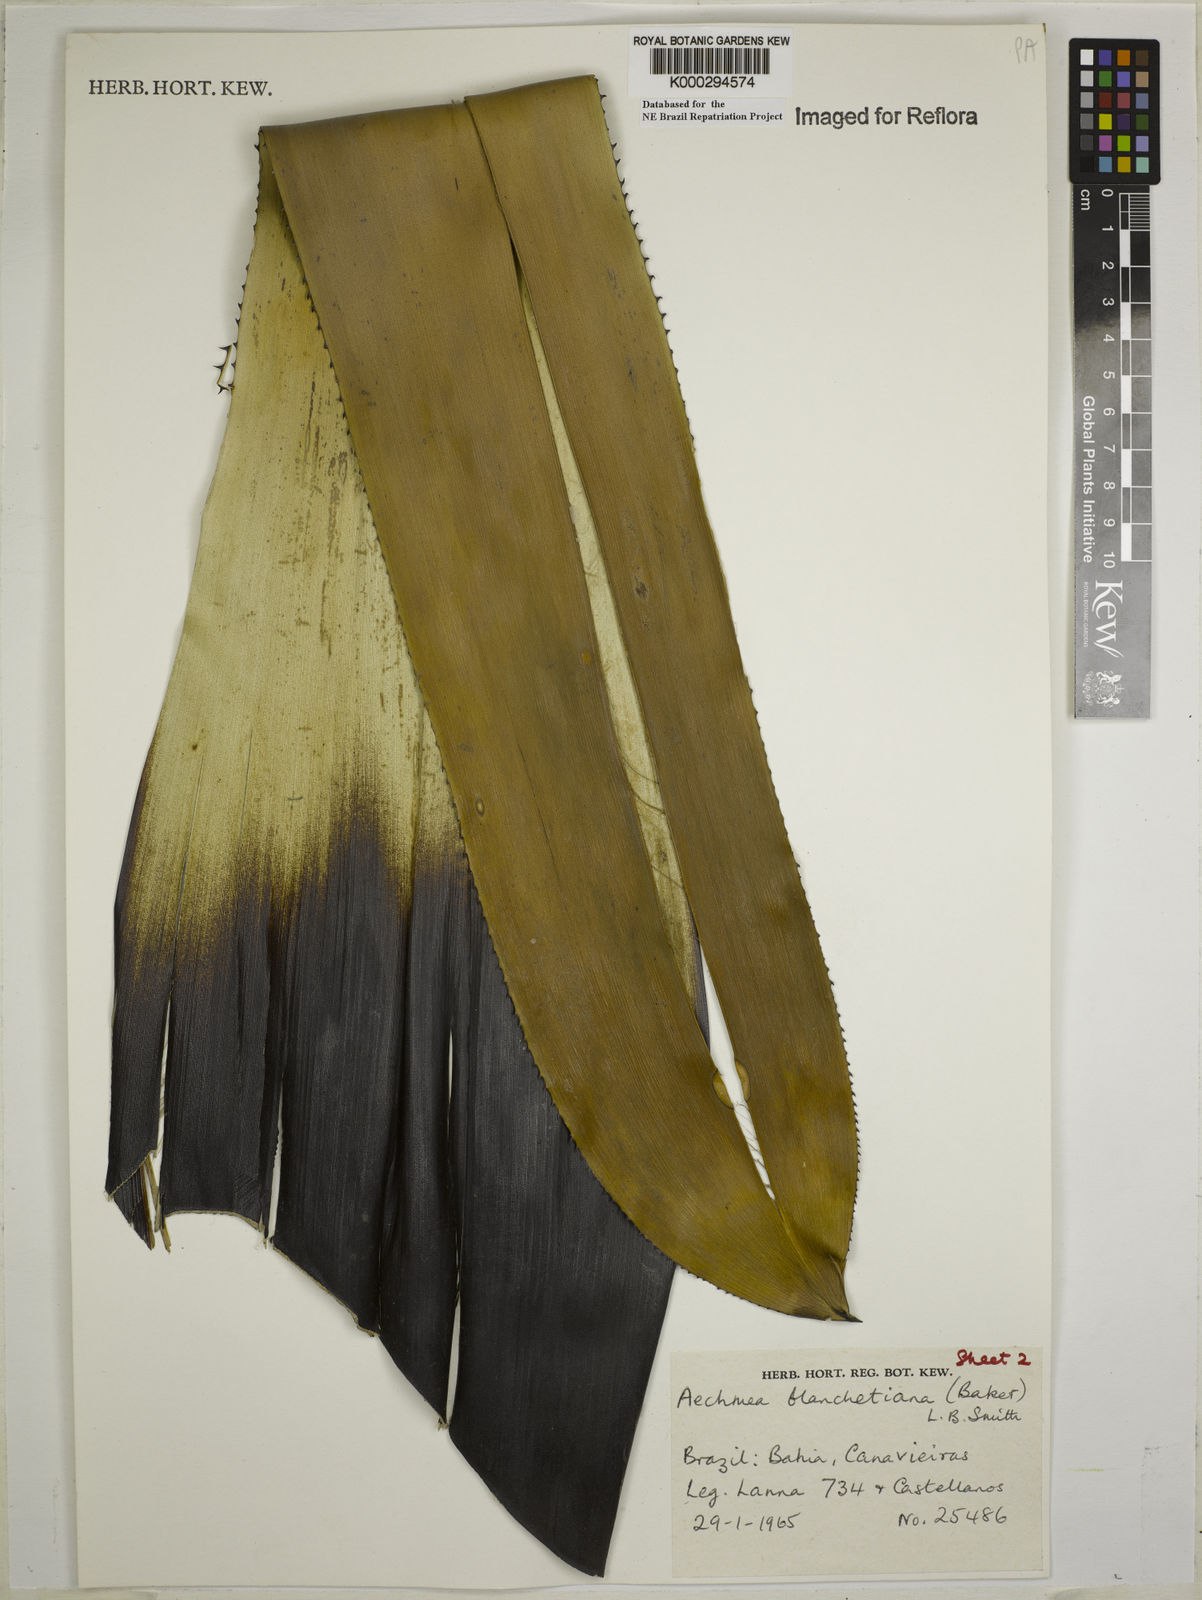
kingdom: Plantae
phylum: Tracheophyta
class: Liliopsida
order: Poales
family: Bromeliaceae
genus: Aechmea
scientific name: Aechmea blanchetiana
